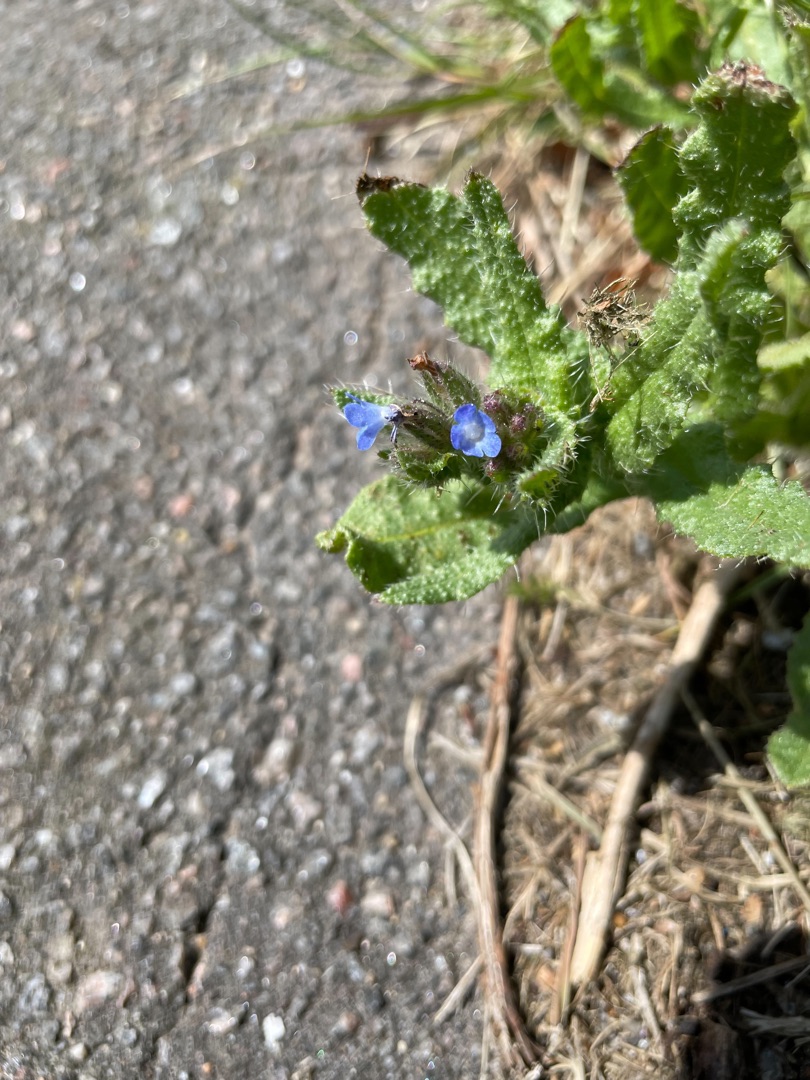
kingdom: Plantae
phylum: Tracheophyta
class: Magnoliopsida
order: Boraginales
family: Boraginaceae
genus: Lycopsis
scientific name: Lycopsis arvensis
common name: Krumhals
